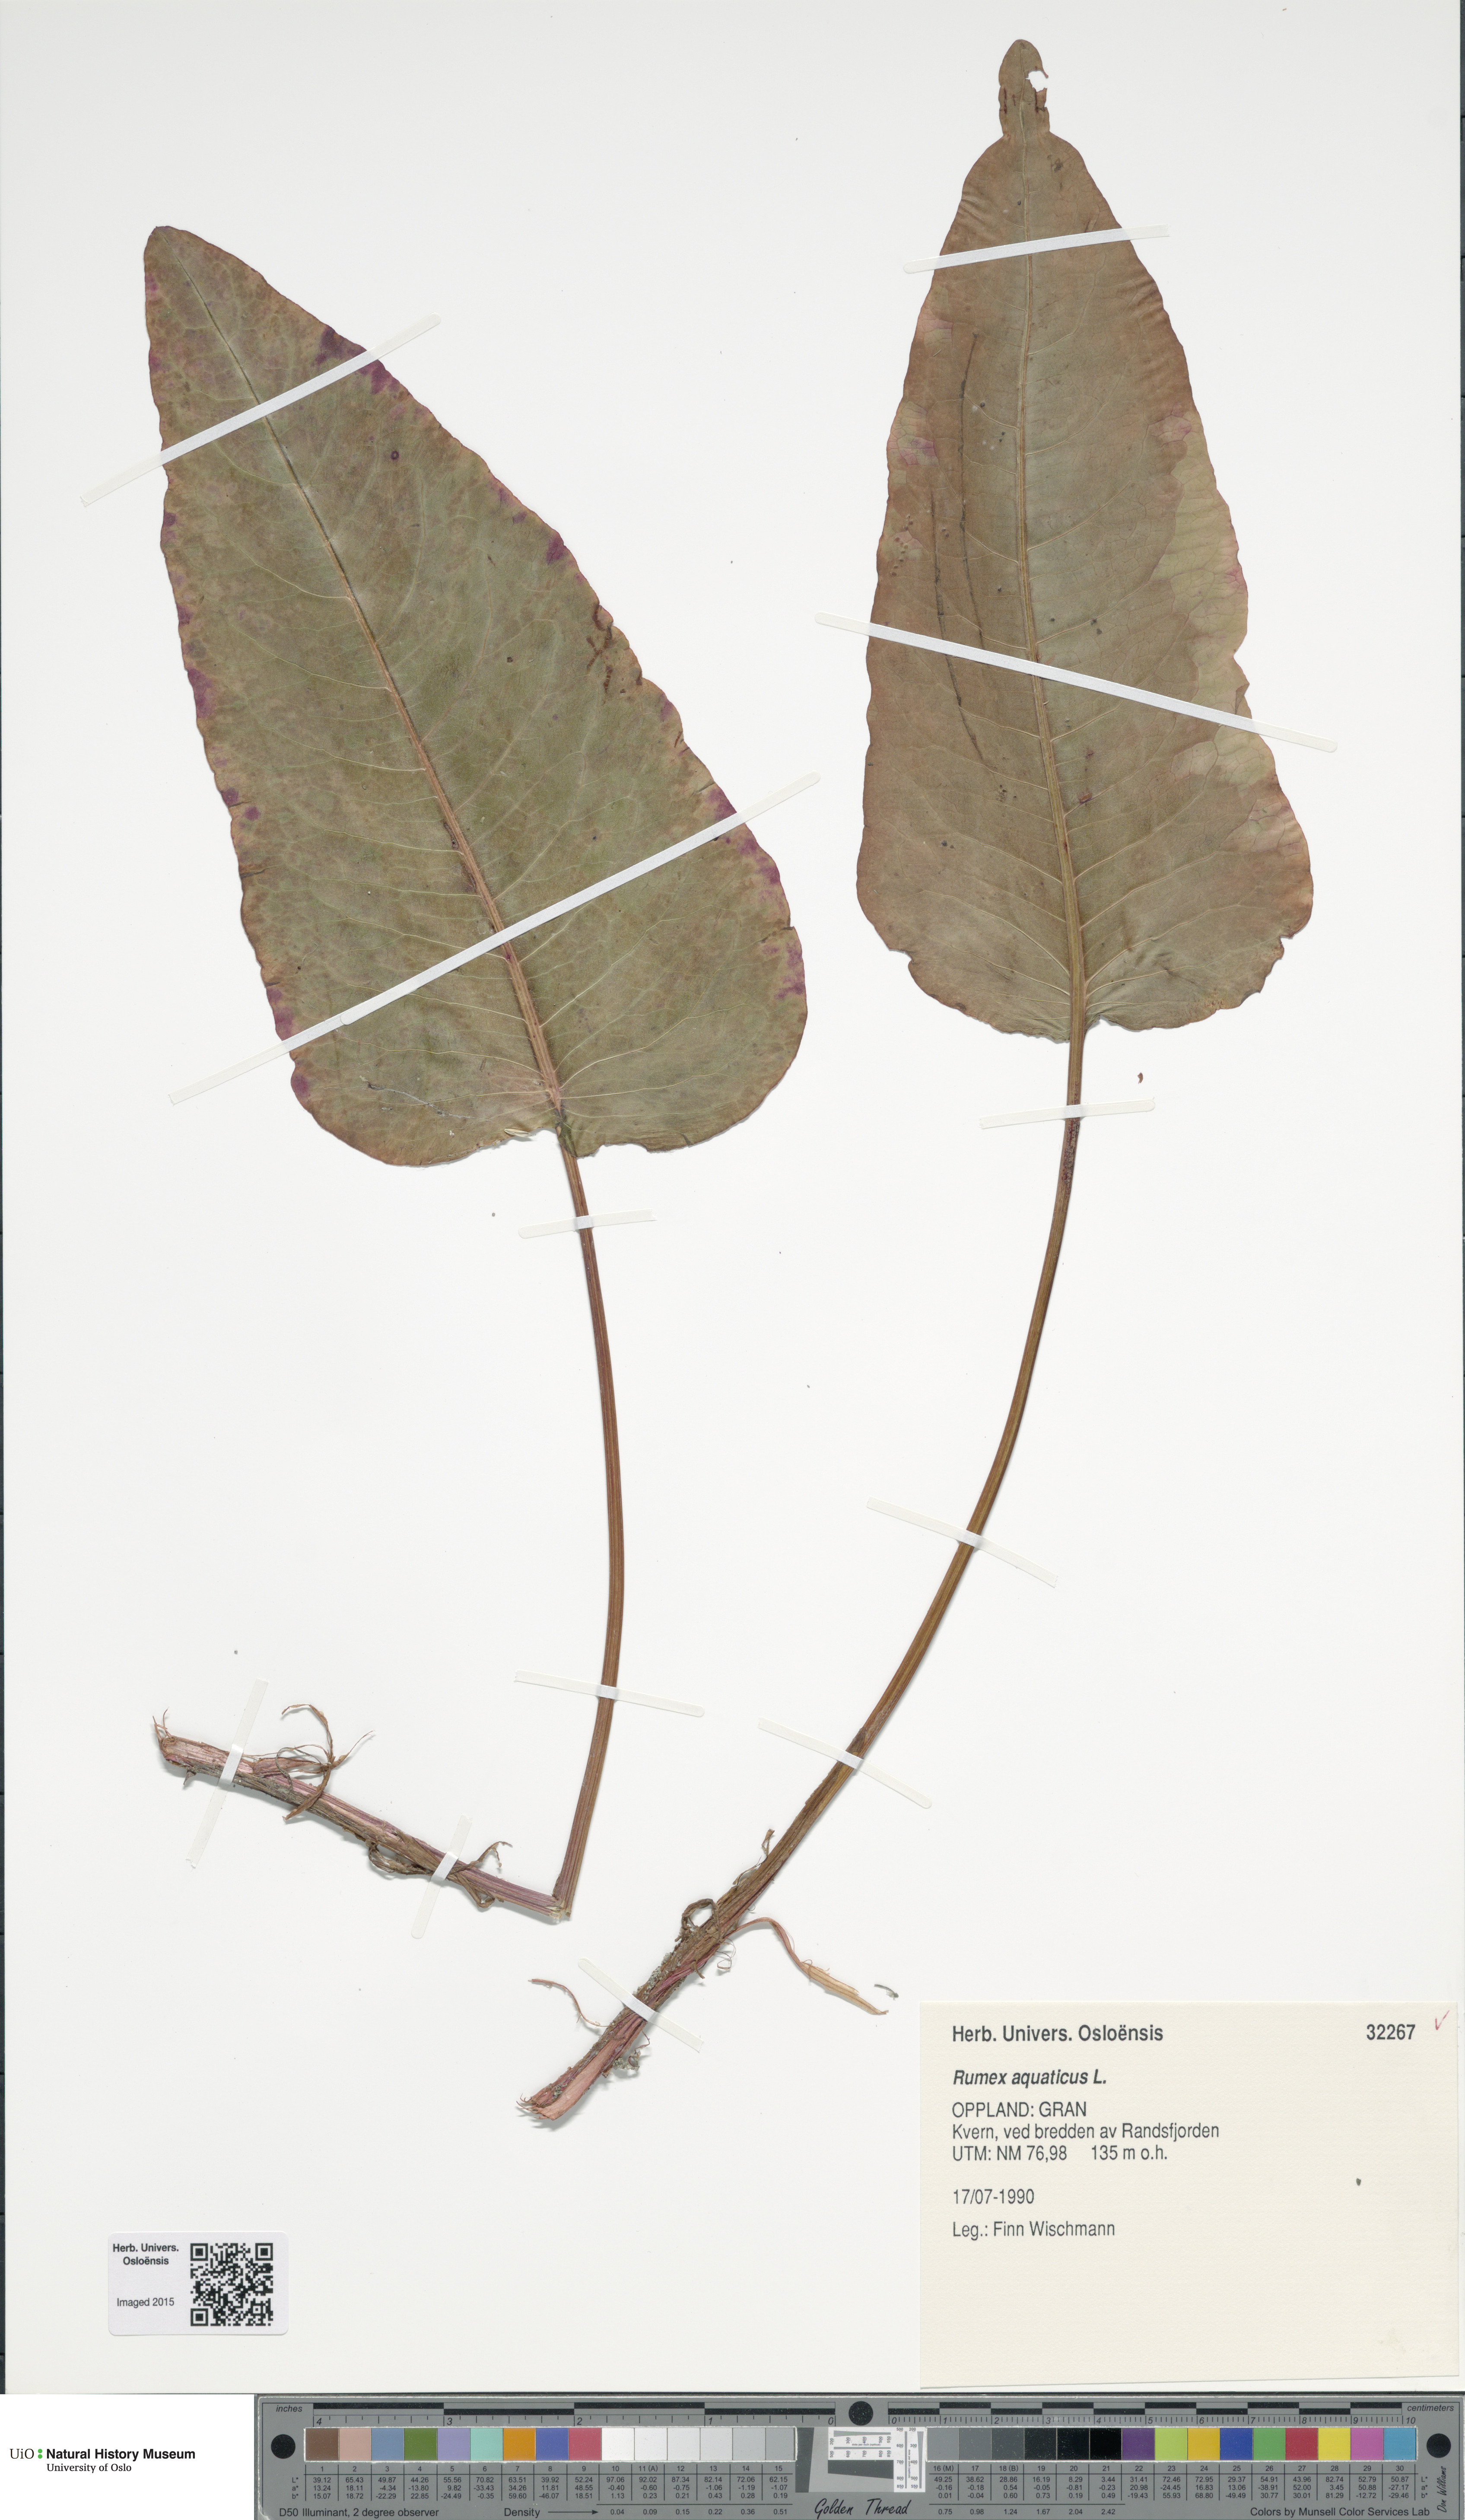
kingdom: Plantae
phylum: Tracheophyta
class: Magnoliopsida
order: Caryophyllales
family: Polygonaceae
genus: Rumex
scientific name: Rumex aquaticus
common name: Scottish dock
